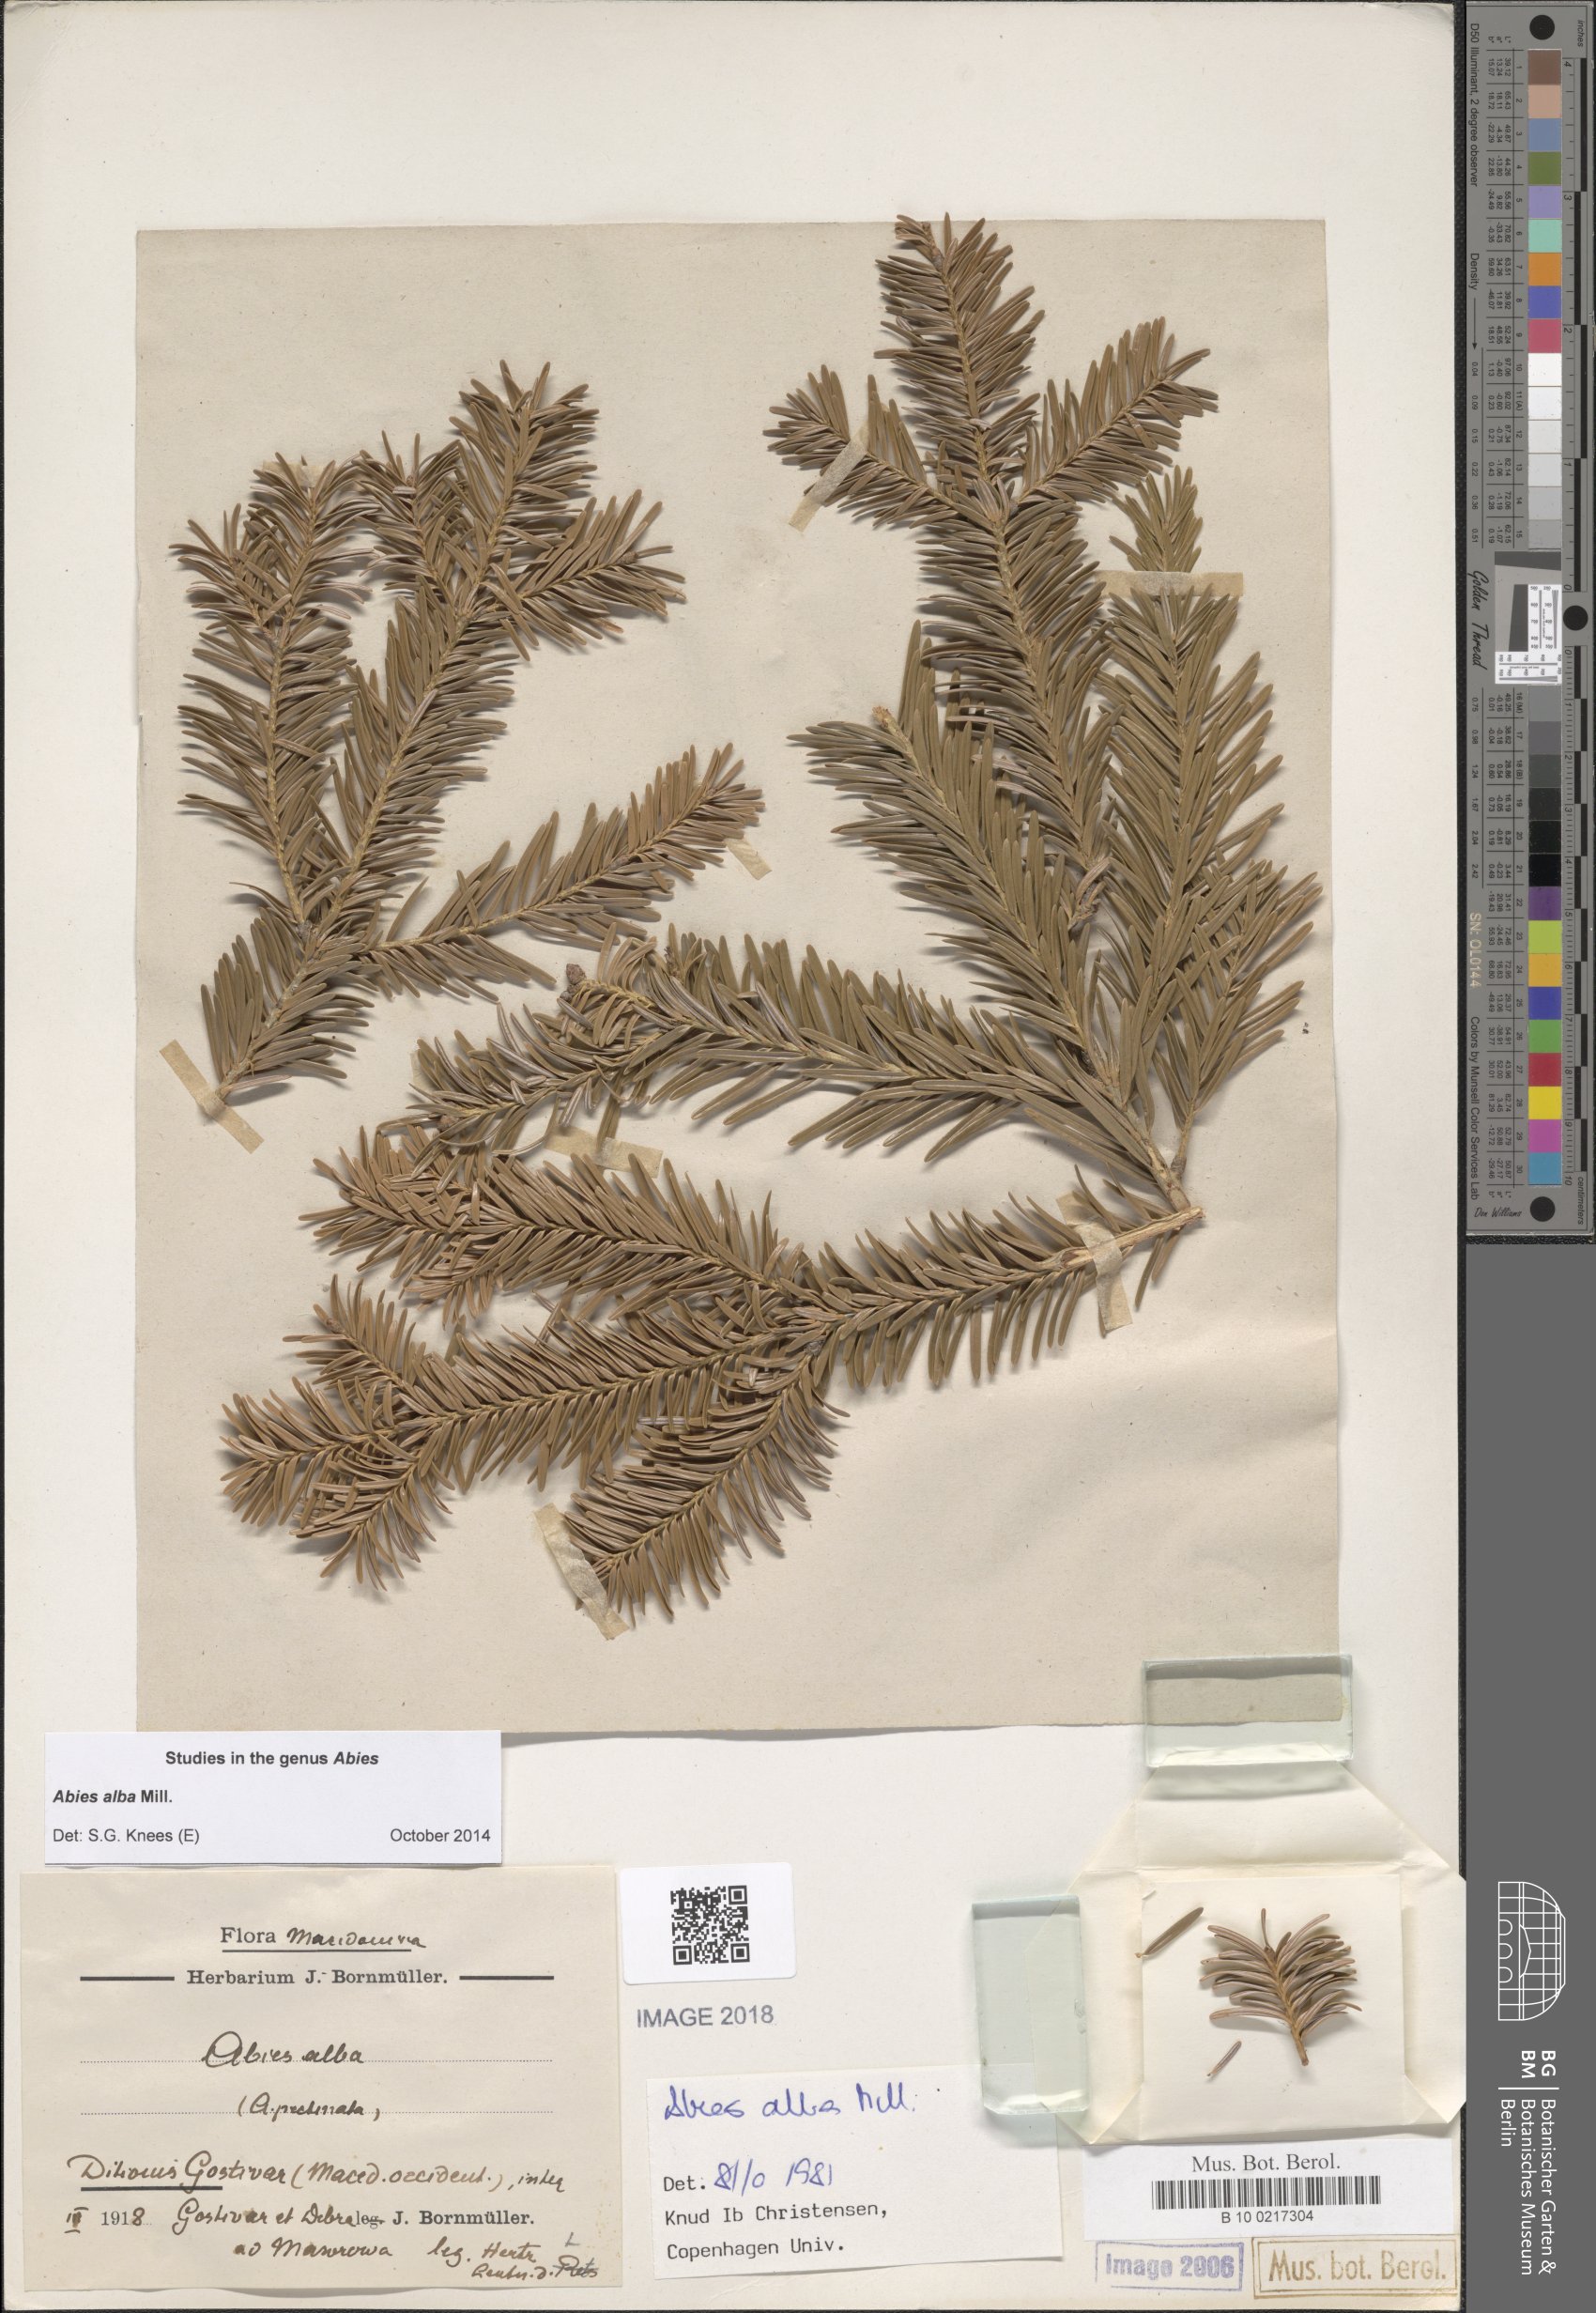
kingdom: Plantae
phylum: Tracheophyta
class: Pinopsida
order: Pinales
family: Pinaceae
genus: Abies
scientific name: Abies alba
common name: Silver fir
